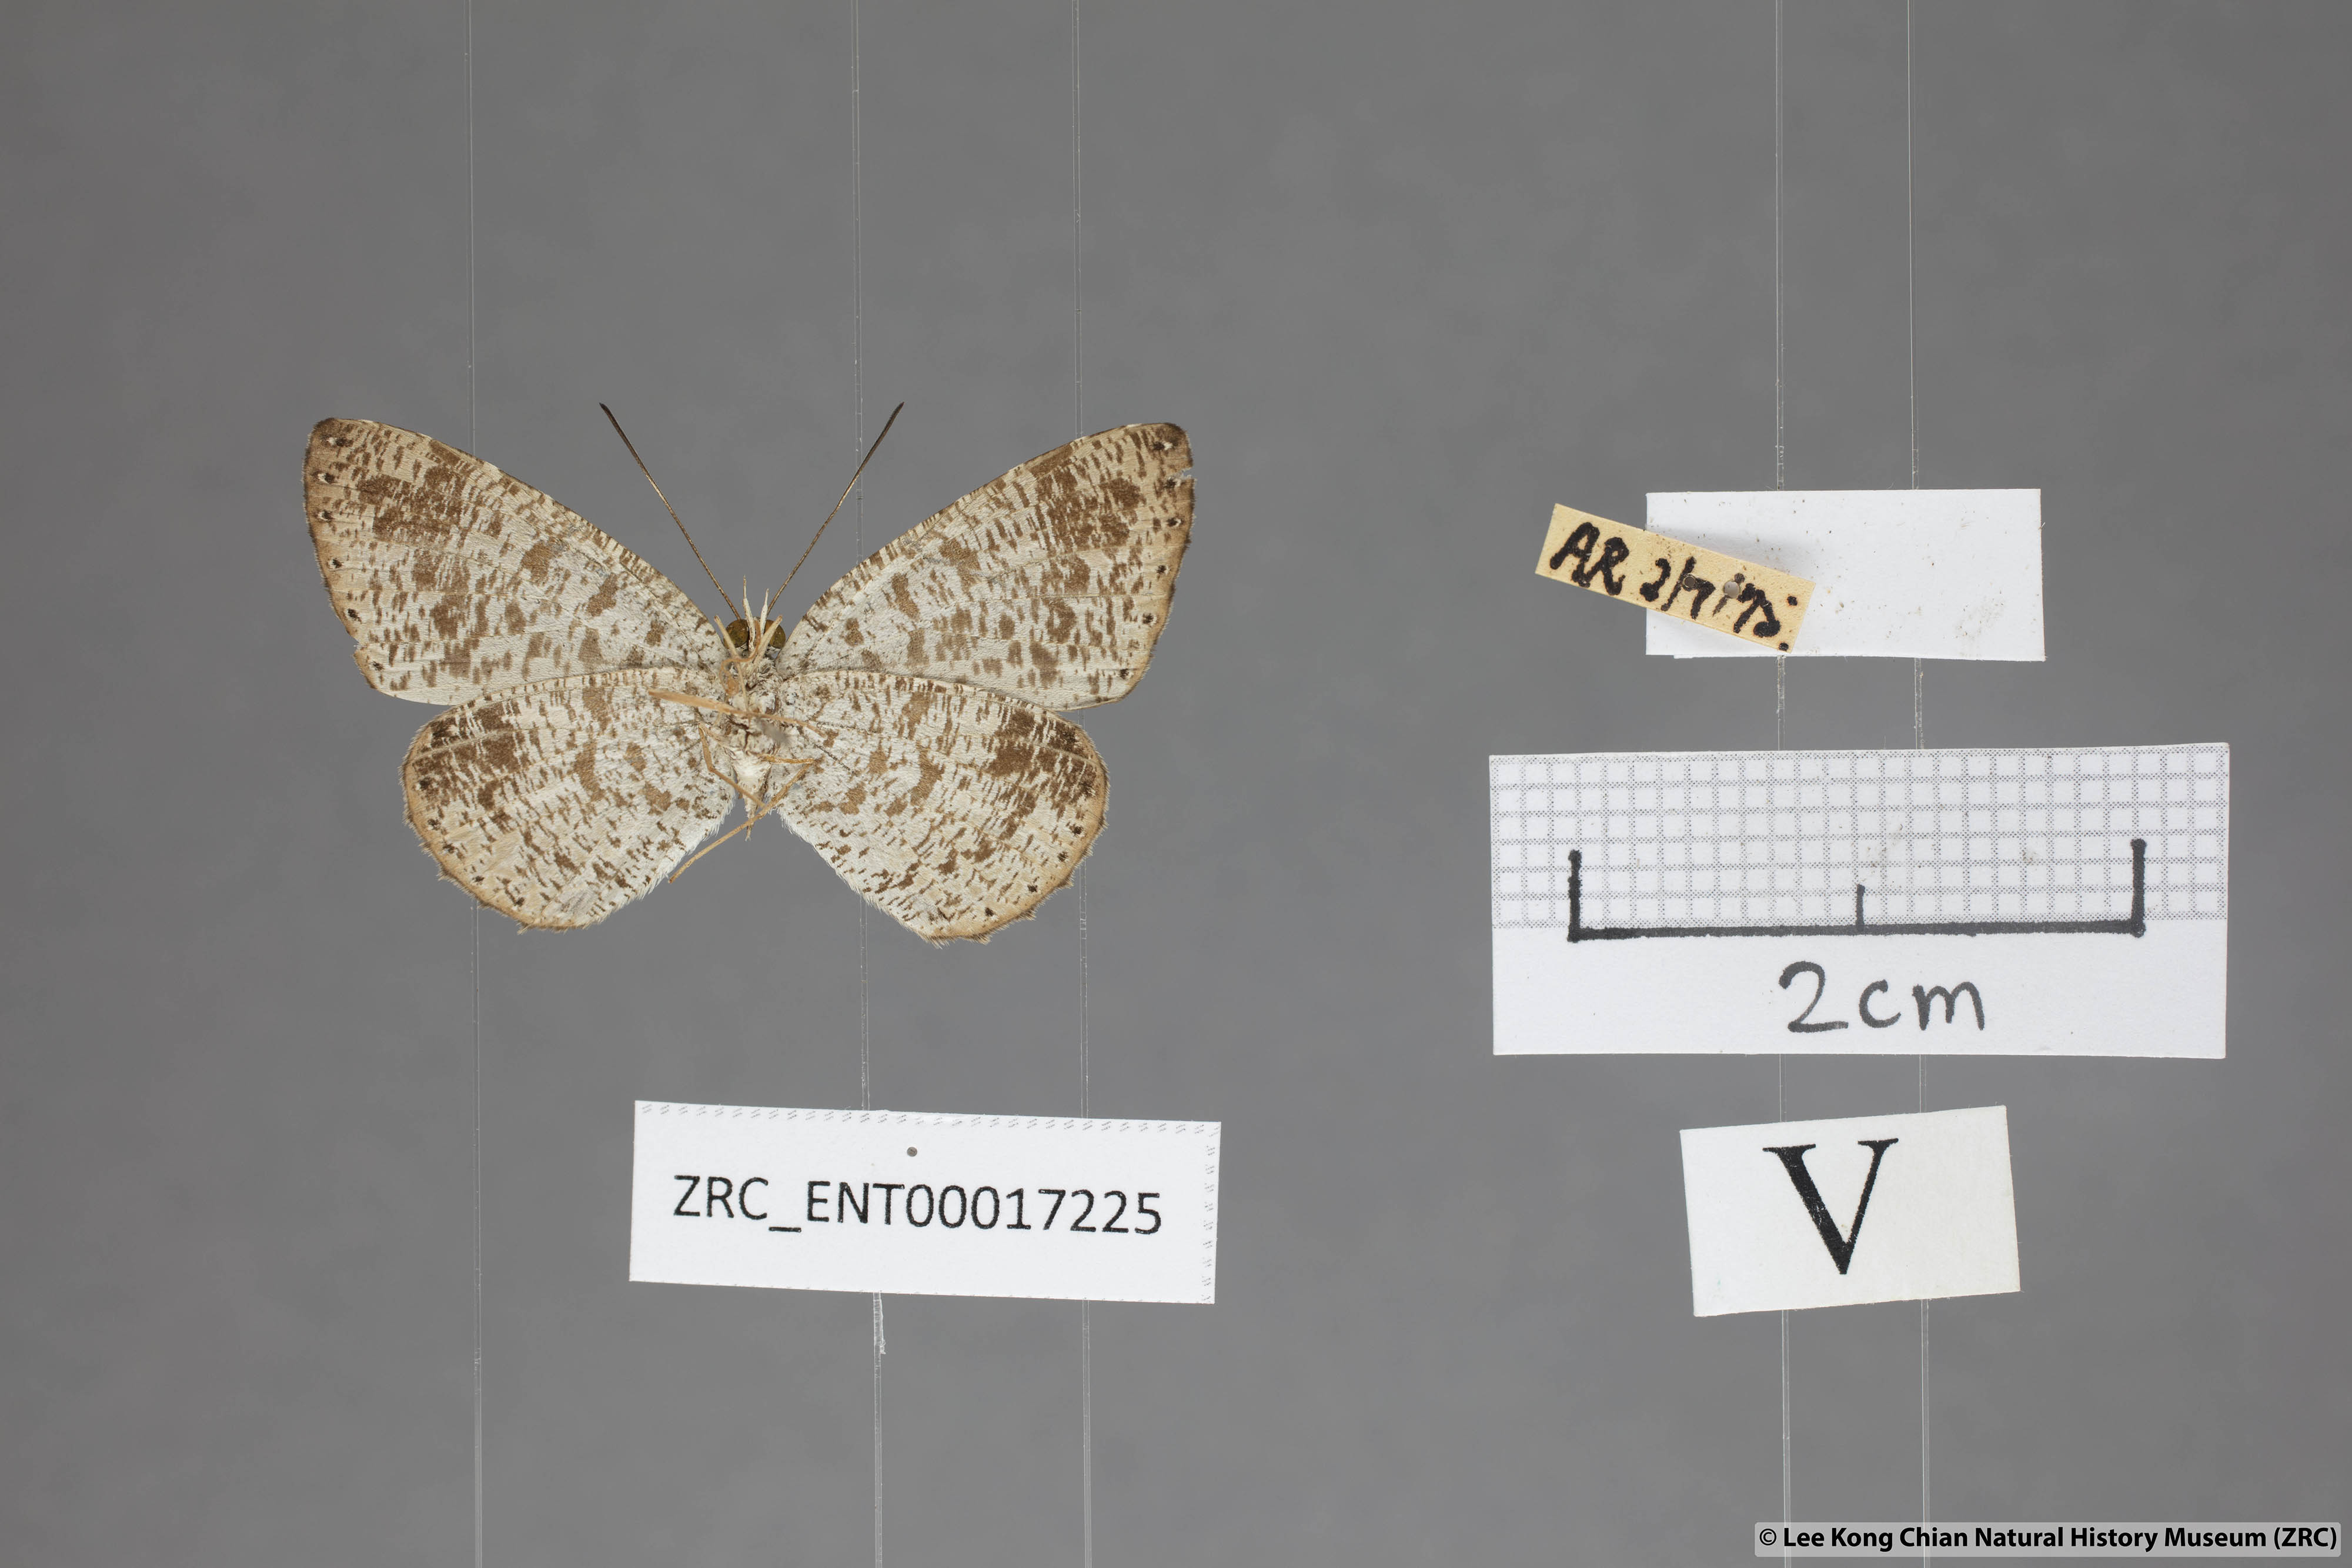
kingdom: Animalia
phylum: Arthropoda
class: Insecta
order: Lepidoptera
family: Lycaenidae
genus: Allotinus
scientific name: Allotinus fabius
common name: Angled darkie
